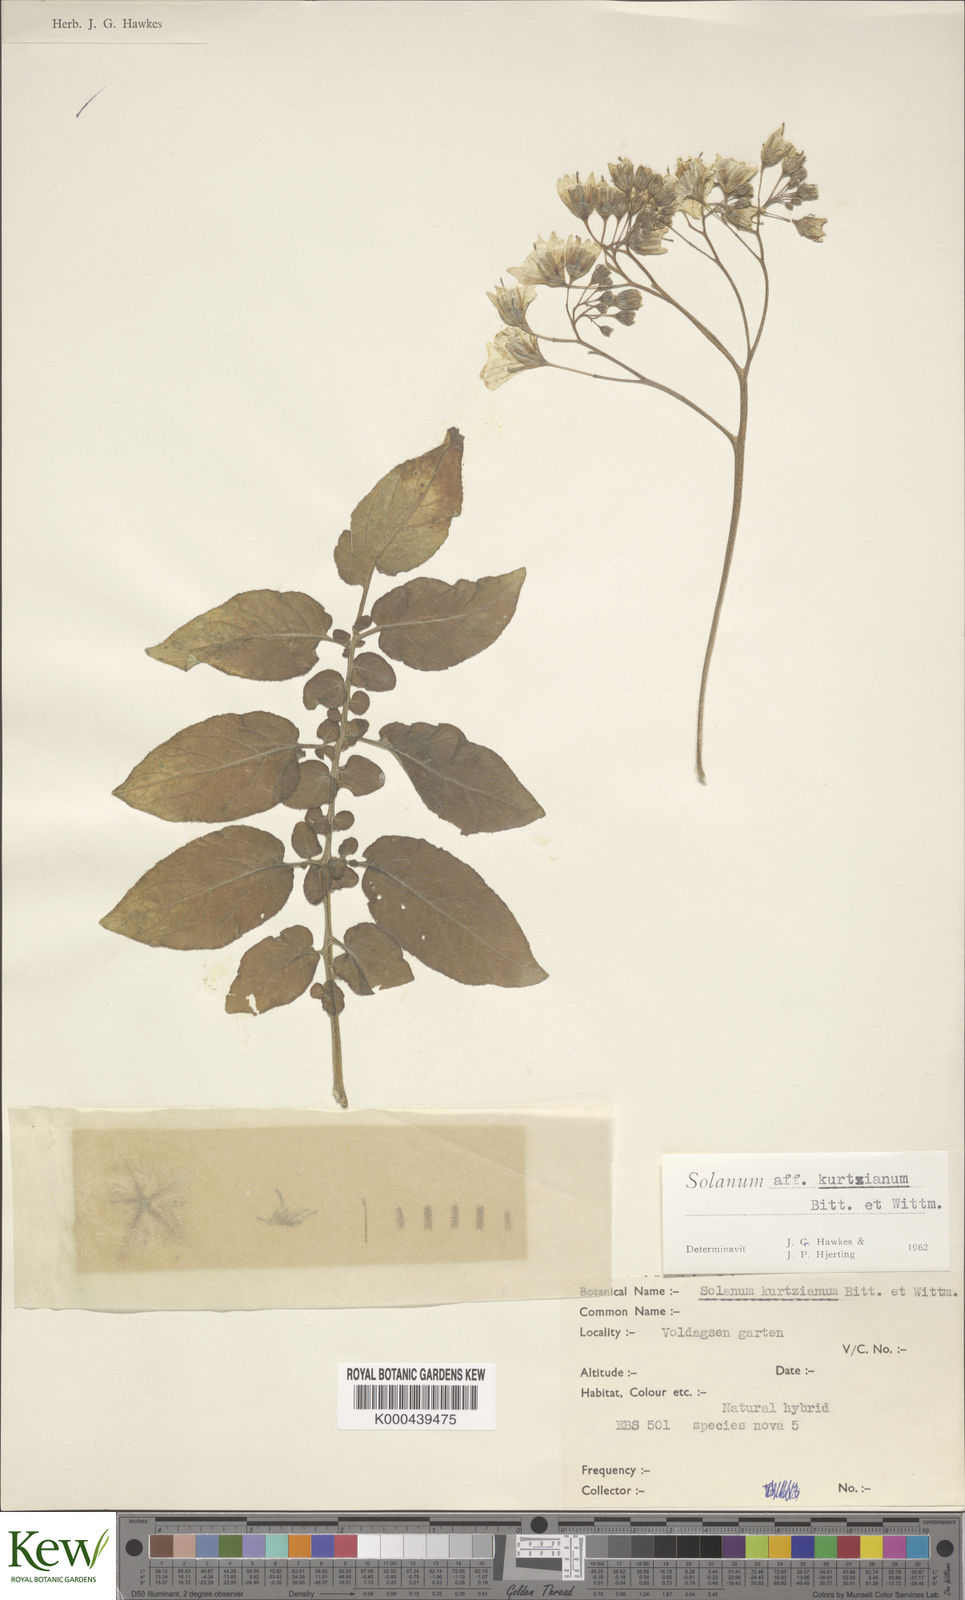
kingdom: Plantae
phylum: Tracheophyta
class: Magnoliopsida
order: Solanales
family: Solanaceae
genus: Solanum
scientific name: Solanum kurtzianum
